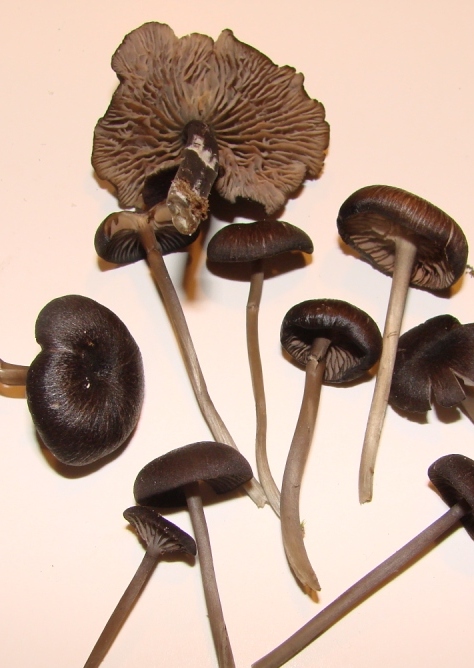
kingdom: Fungi
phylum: Basidiomycota
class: Agaricomycetes
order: Agaricales
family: Entolomataceae
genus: Entoloma
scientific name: Entoloma
